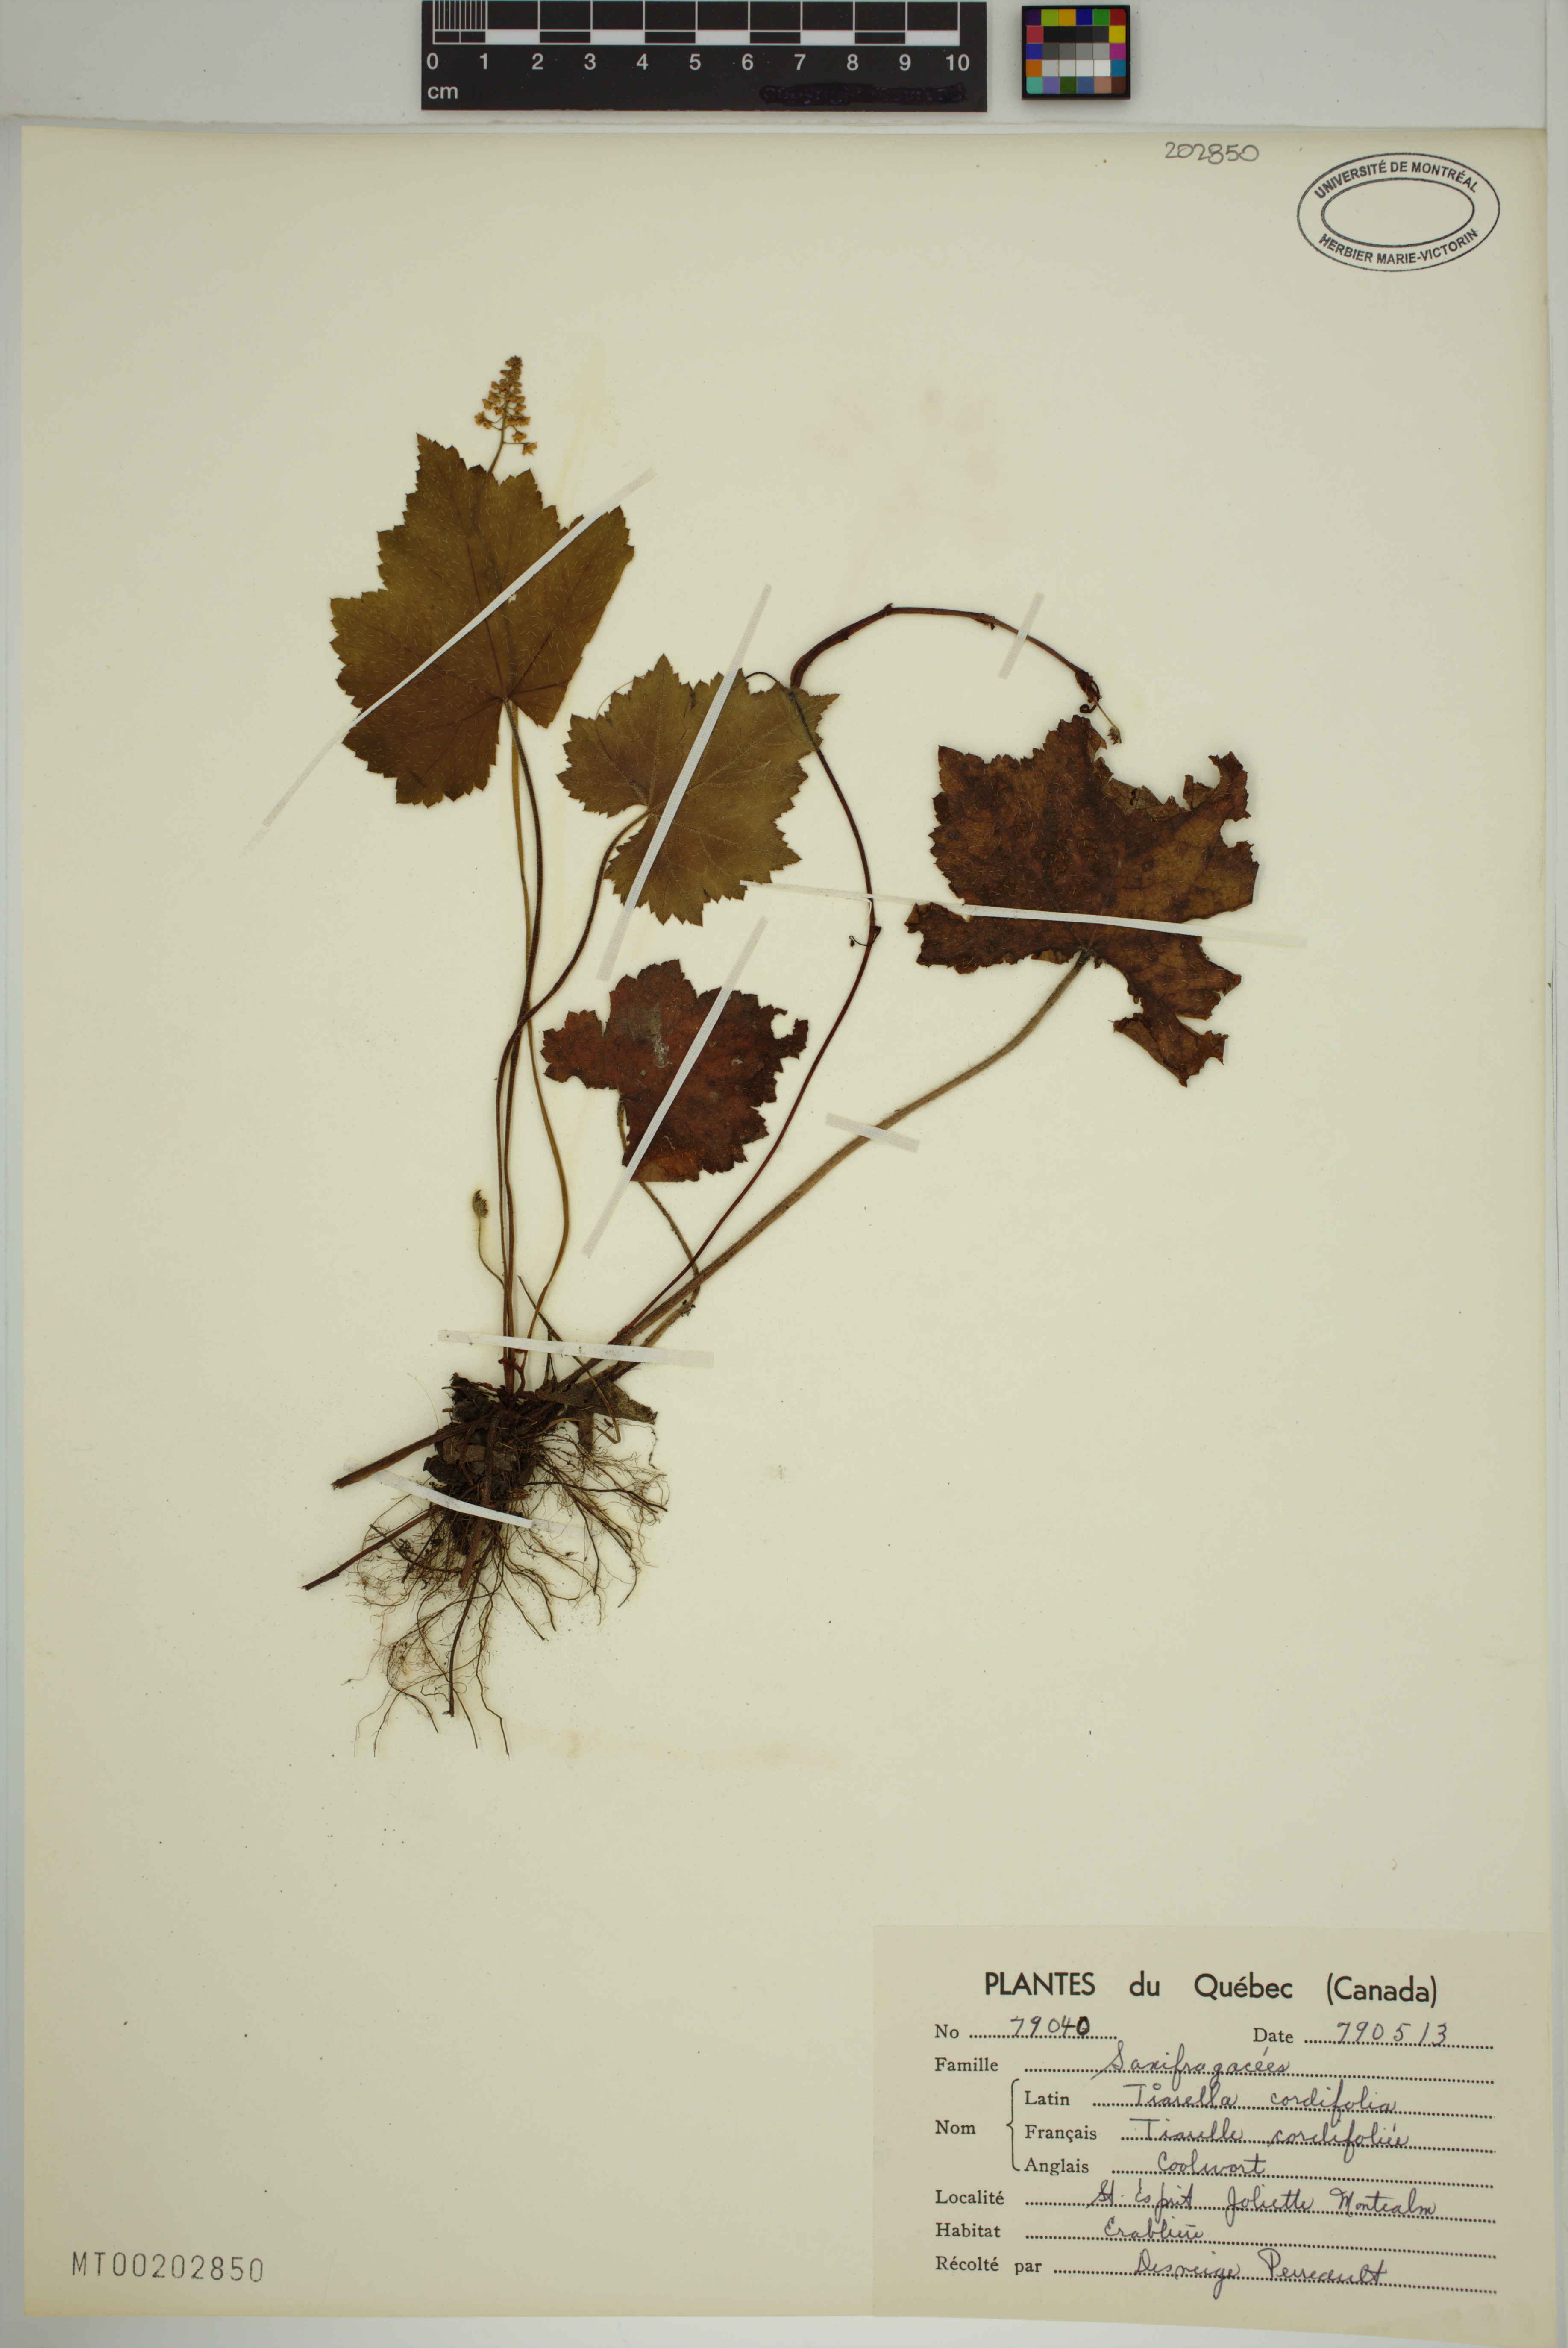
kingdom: Plantae
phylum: Tracheophyta
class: Magnoliopsida
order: Saxifragales
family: Saxifragaceae
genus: Tiarella
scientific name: Tiarella cordifolia
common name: Foamflower
